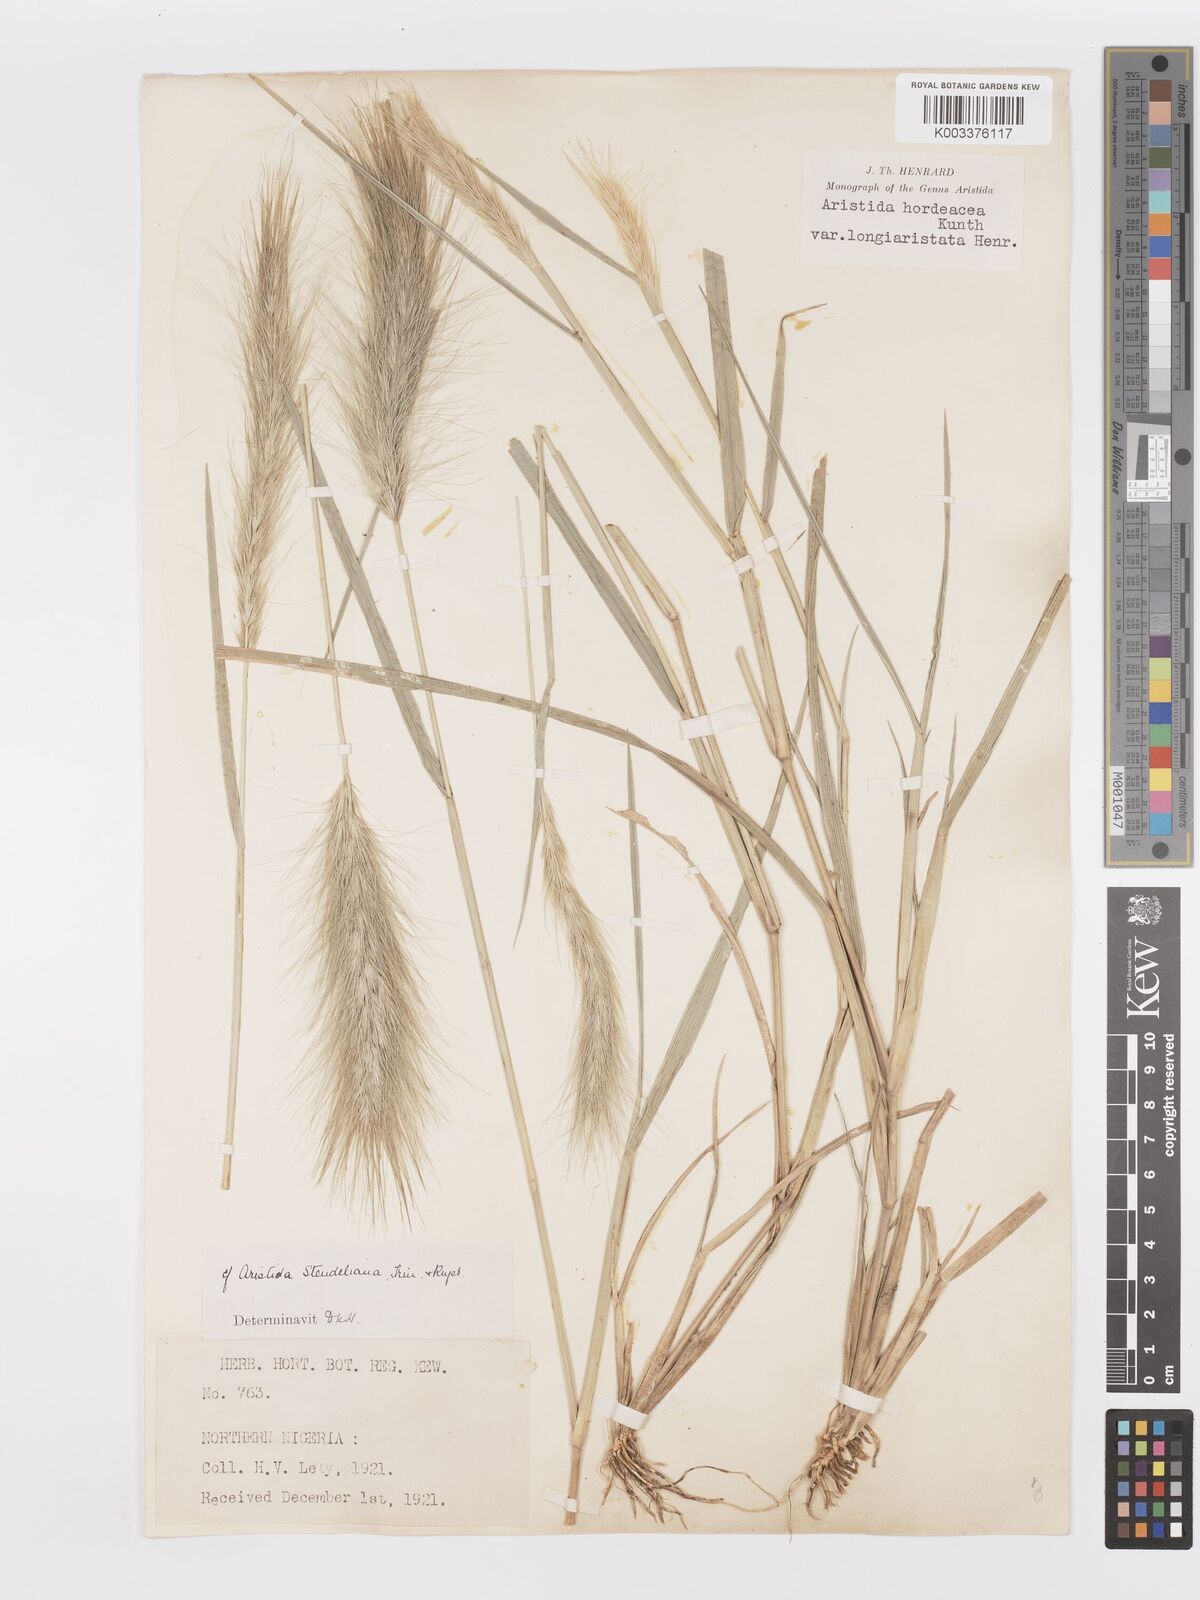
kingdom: Plantae
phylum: Tracheophyta
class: Liliopsida
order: Poales
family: Poaceae
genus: Aristida
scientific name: Aristida hordeacea
